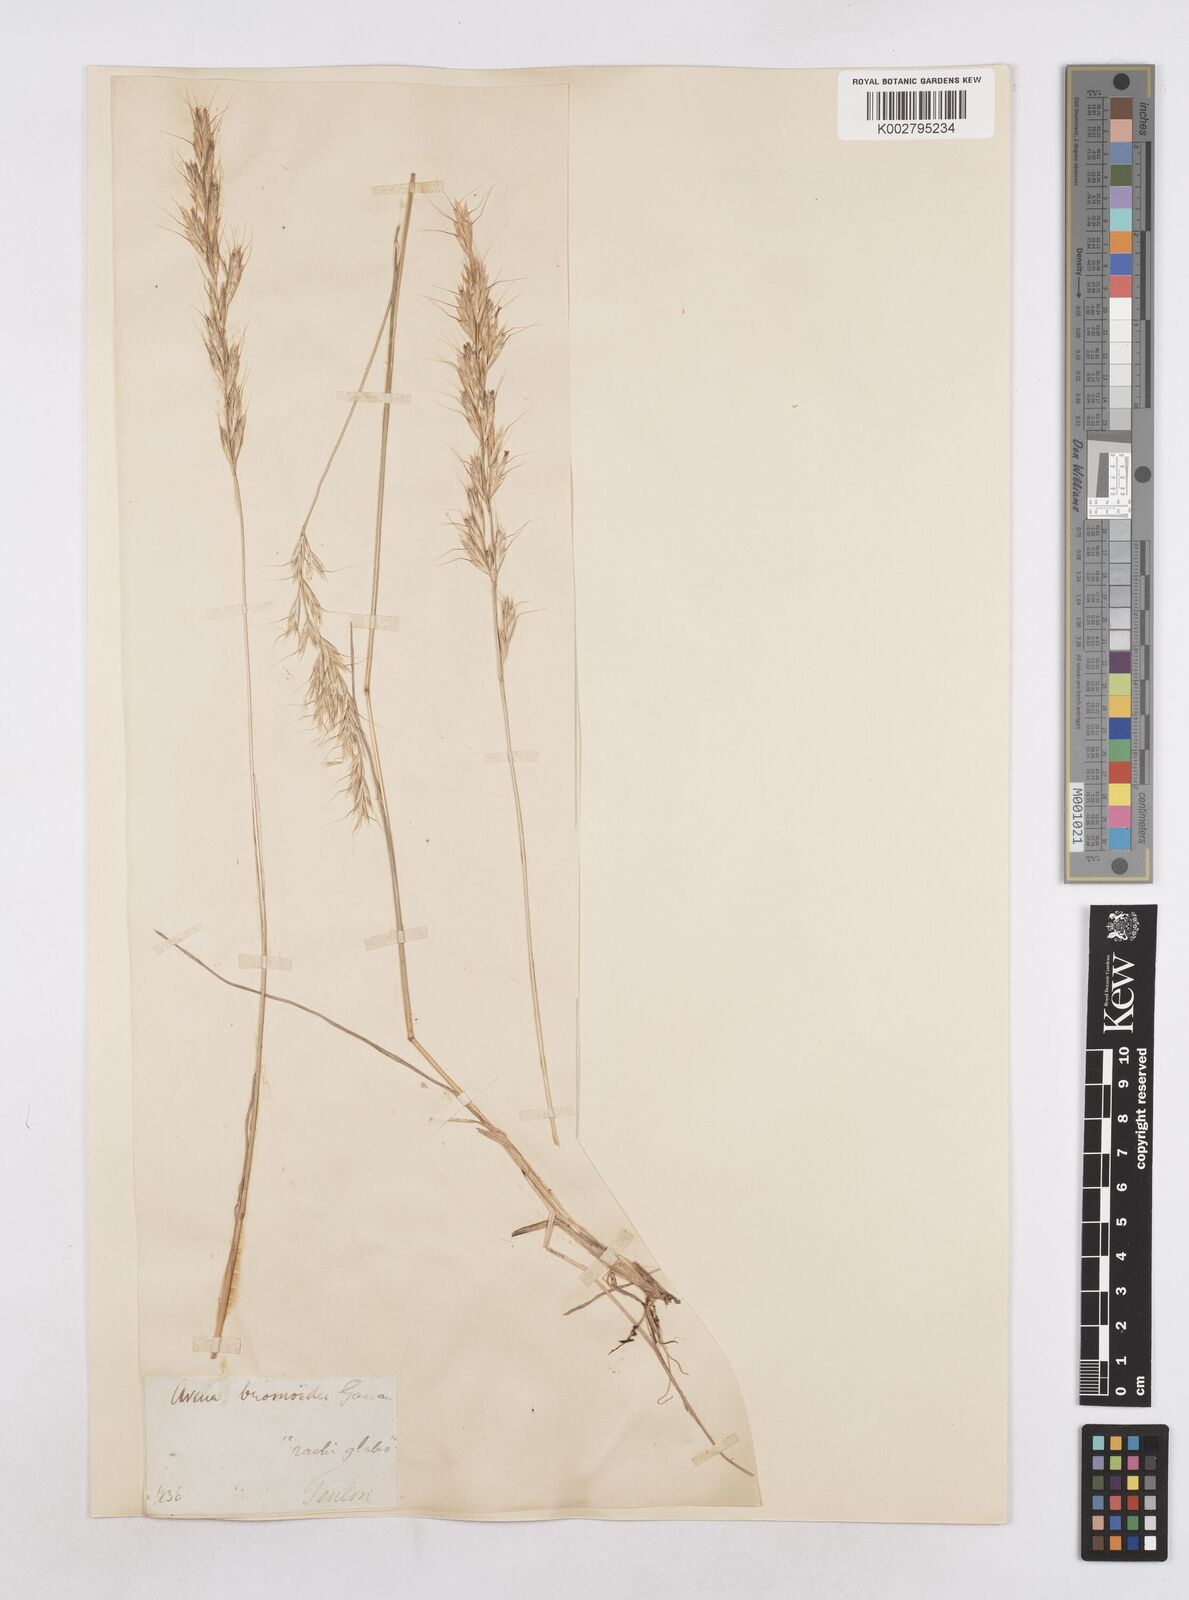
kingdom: Plantae
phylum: Tracheophyta
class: Liliopsida
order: Poales
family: Poaceae
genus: Helictochloa
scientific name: Helictochloa bromoides
